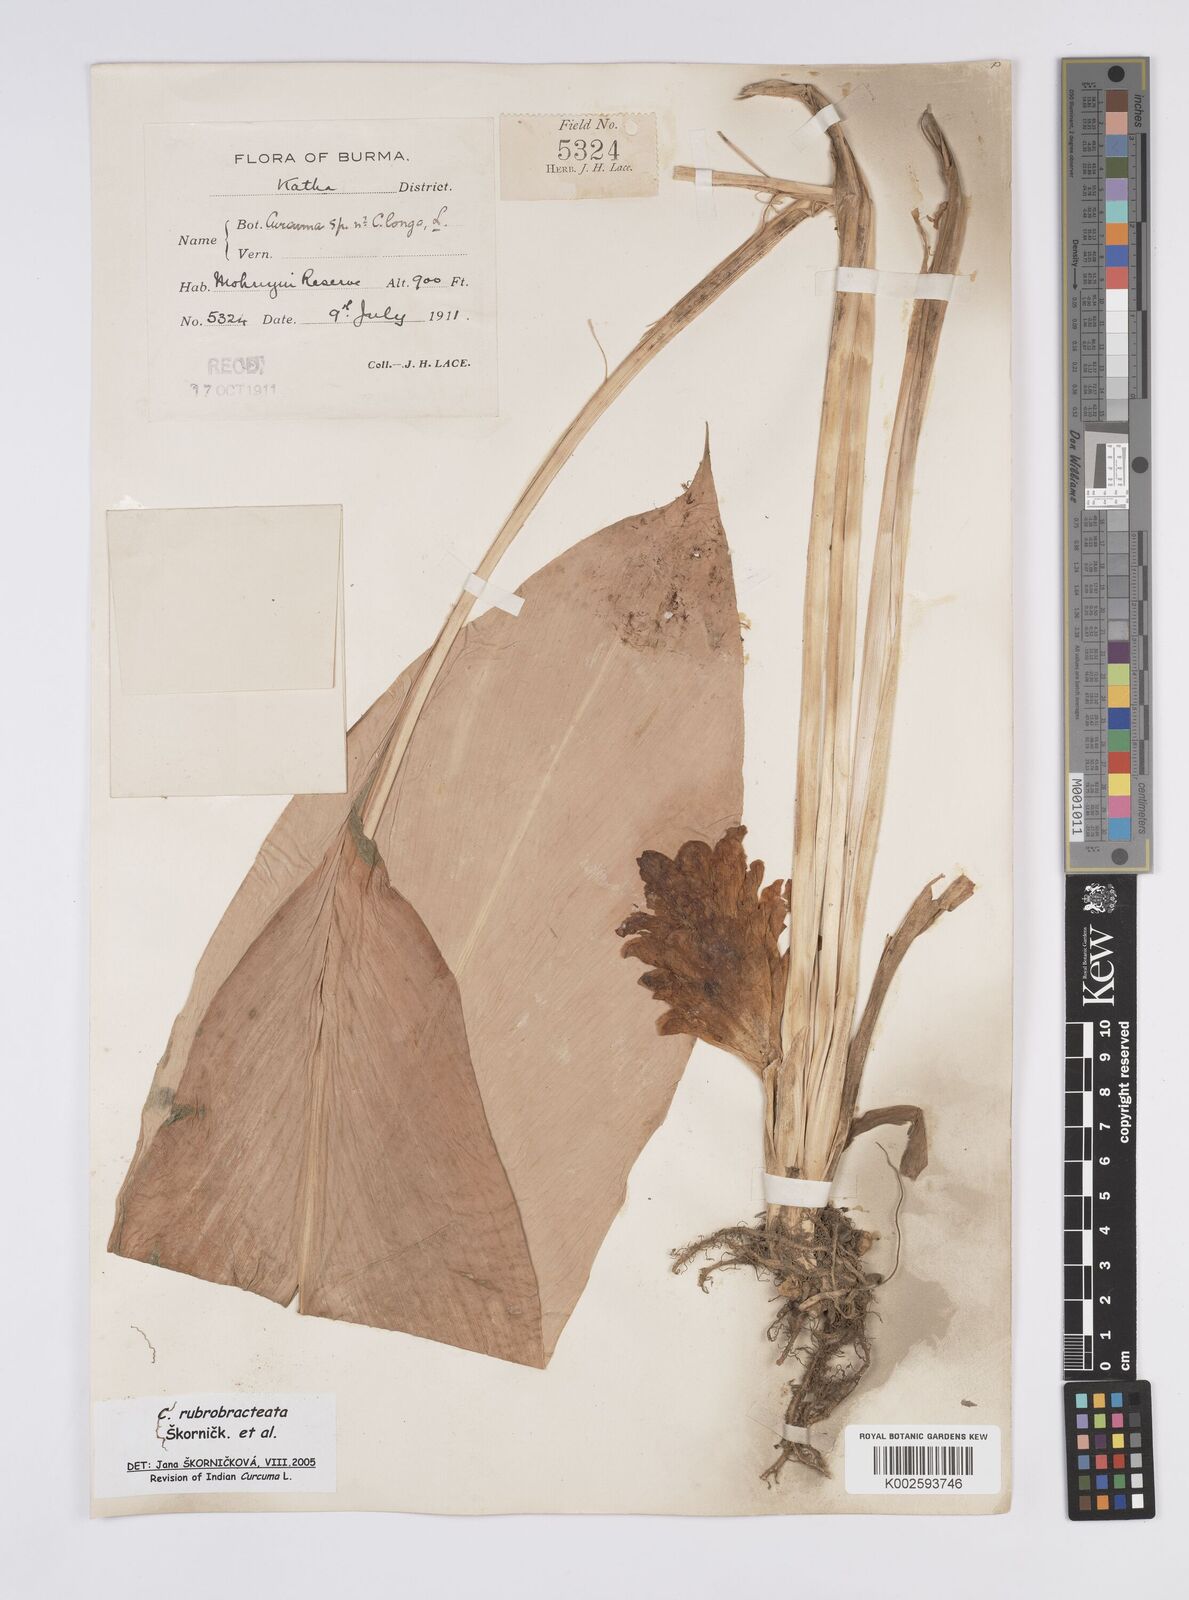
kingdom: Plantae
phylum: Tracheophyta
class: Liliopsida
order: Zingiberales
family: Zingiberaceae
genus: Curcuma
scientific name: Curcuma rubrobracteata
